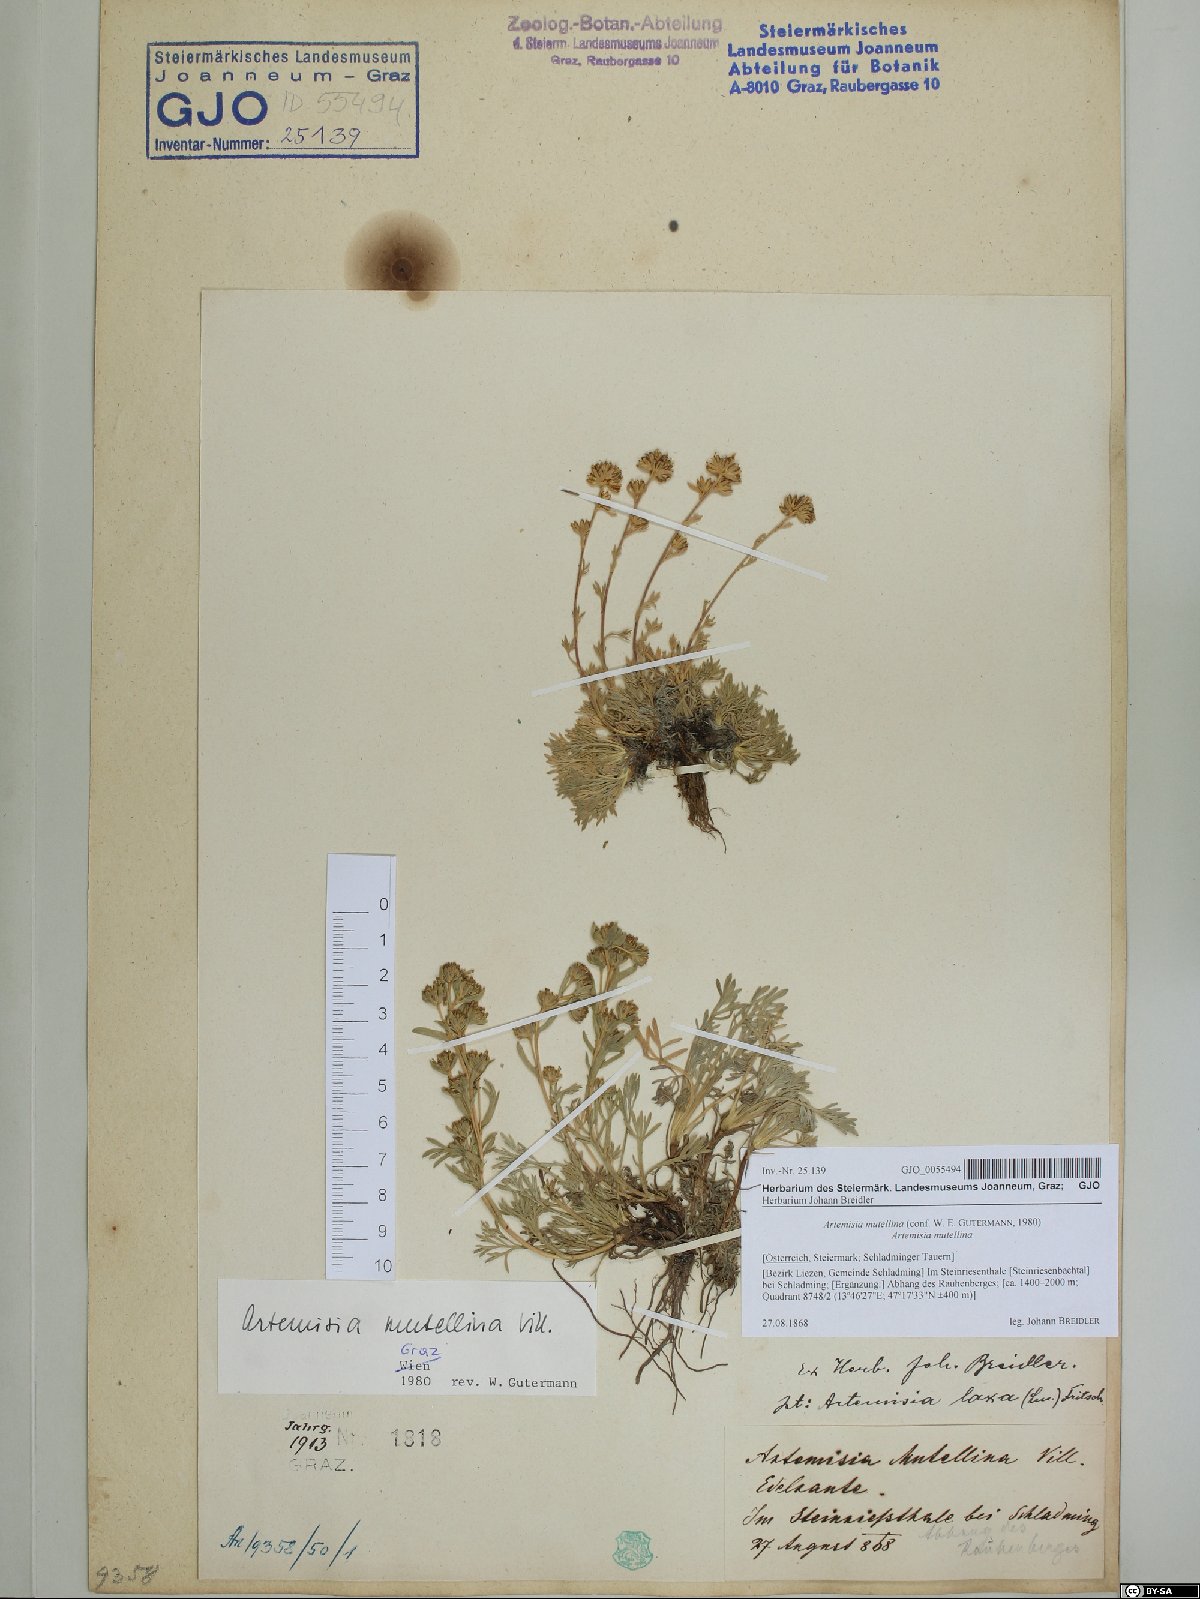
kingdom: Plantae
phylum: Tracheophyta
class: Magnoliopsida
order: Asterales
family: Asteraceae
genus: Artemisia
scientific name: Artemisia mutellina
